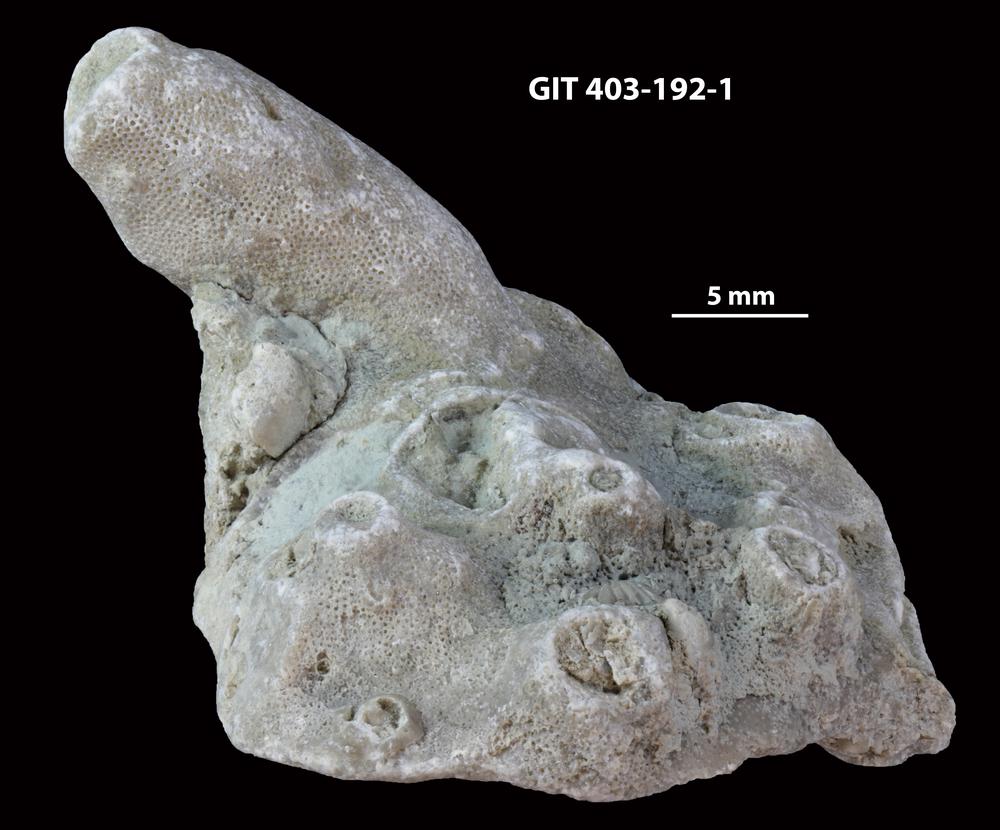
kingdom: Animalia
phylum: Cnidaria
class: Anthozoa
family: Tryplasmatidae
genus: Tryplasma
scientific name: Tryplasma
